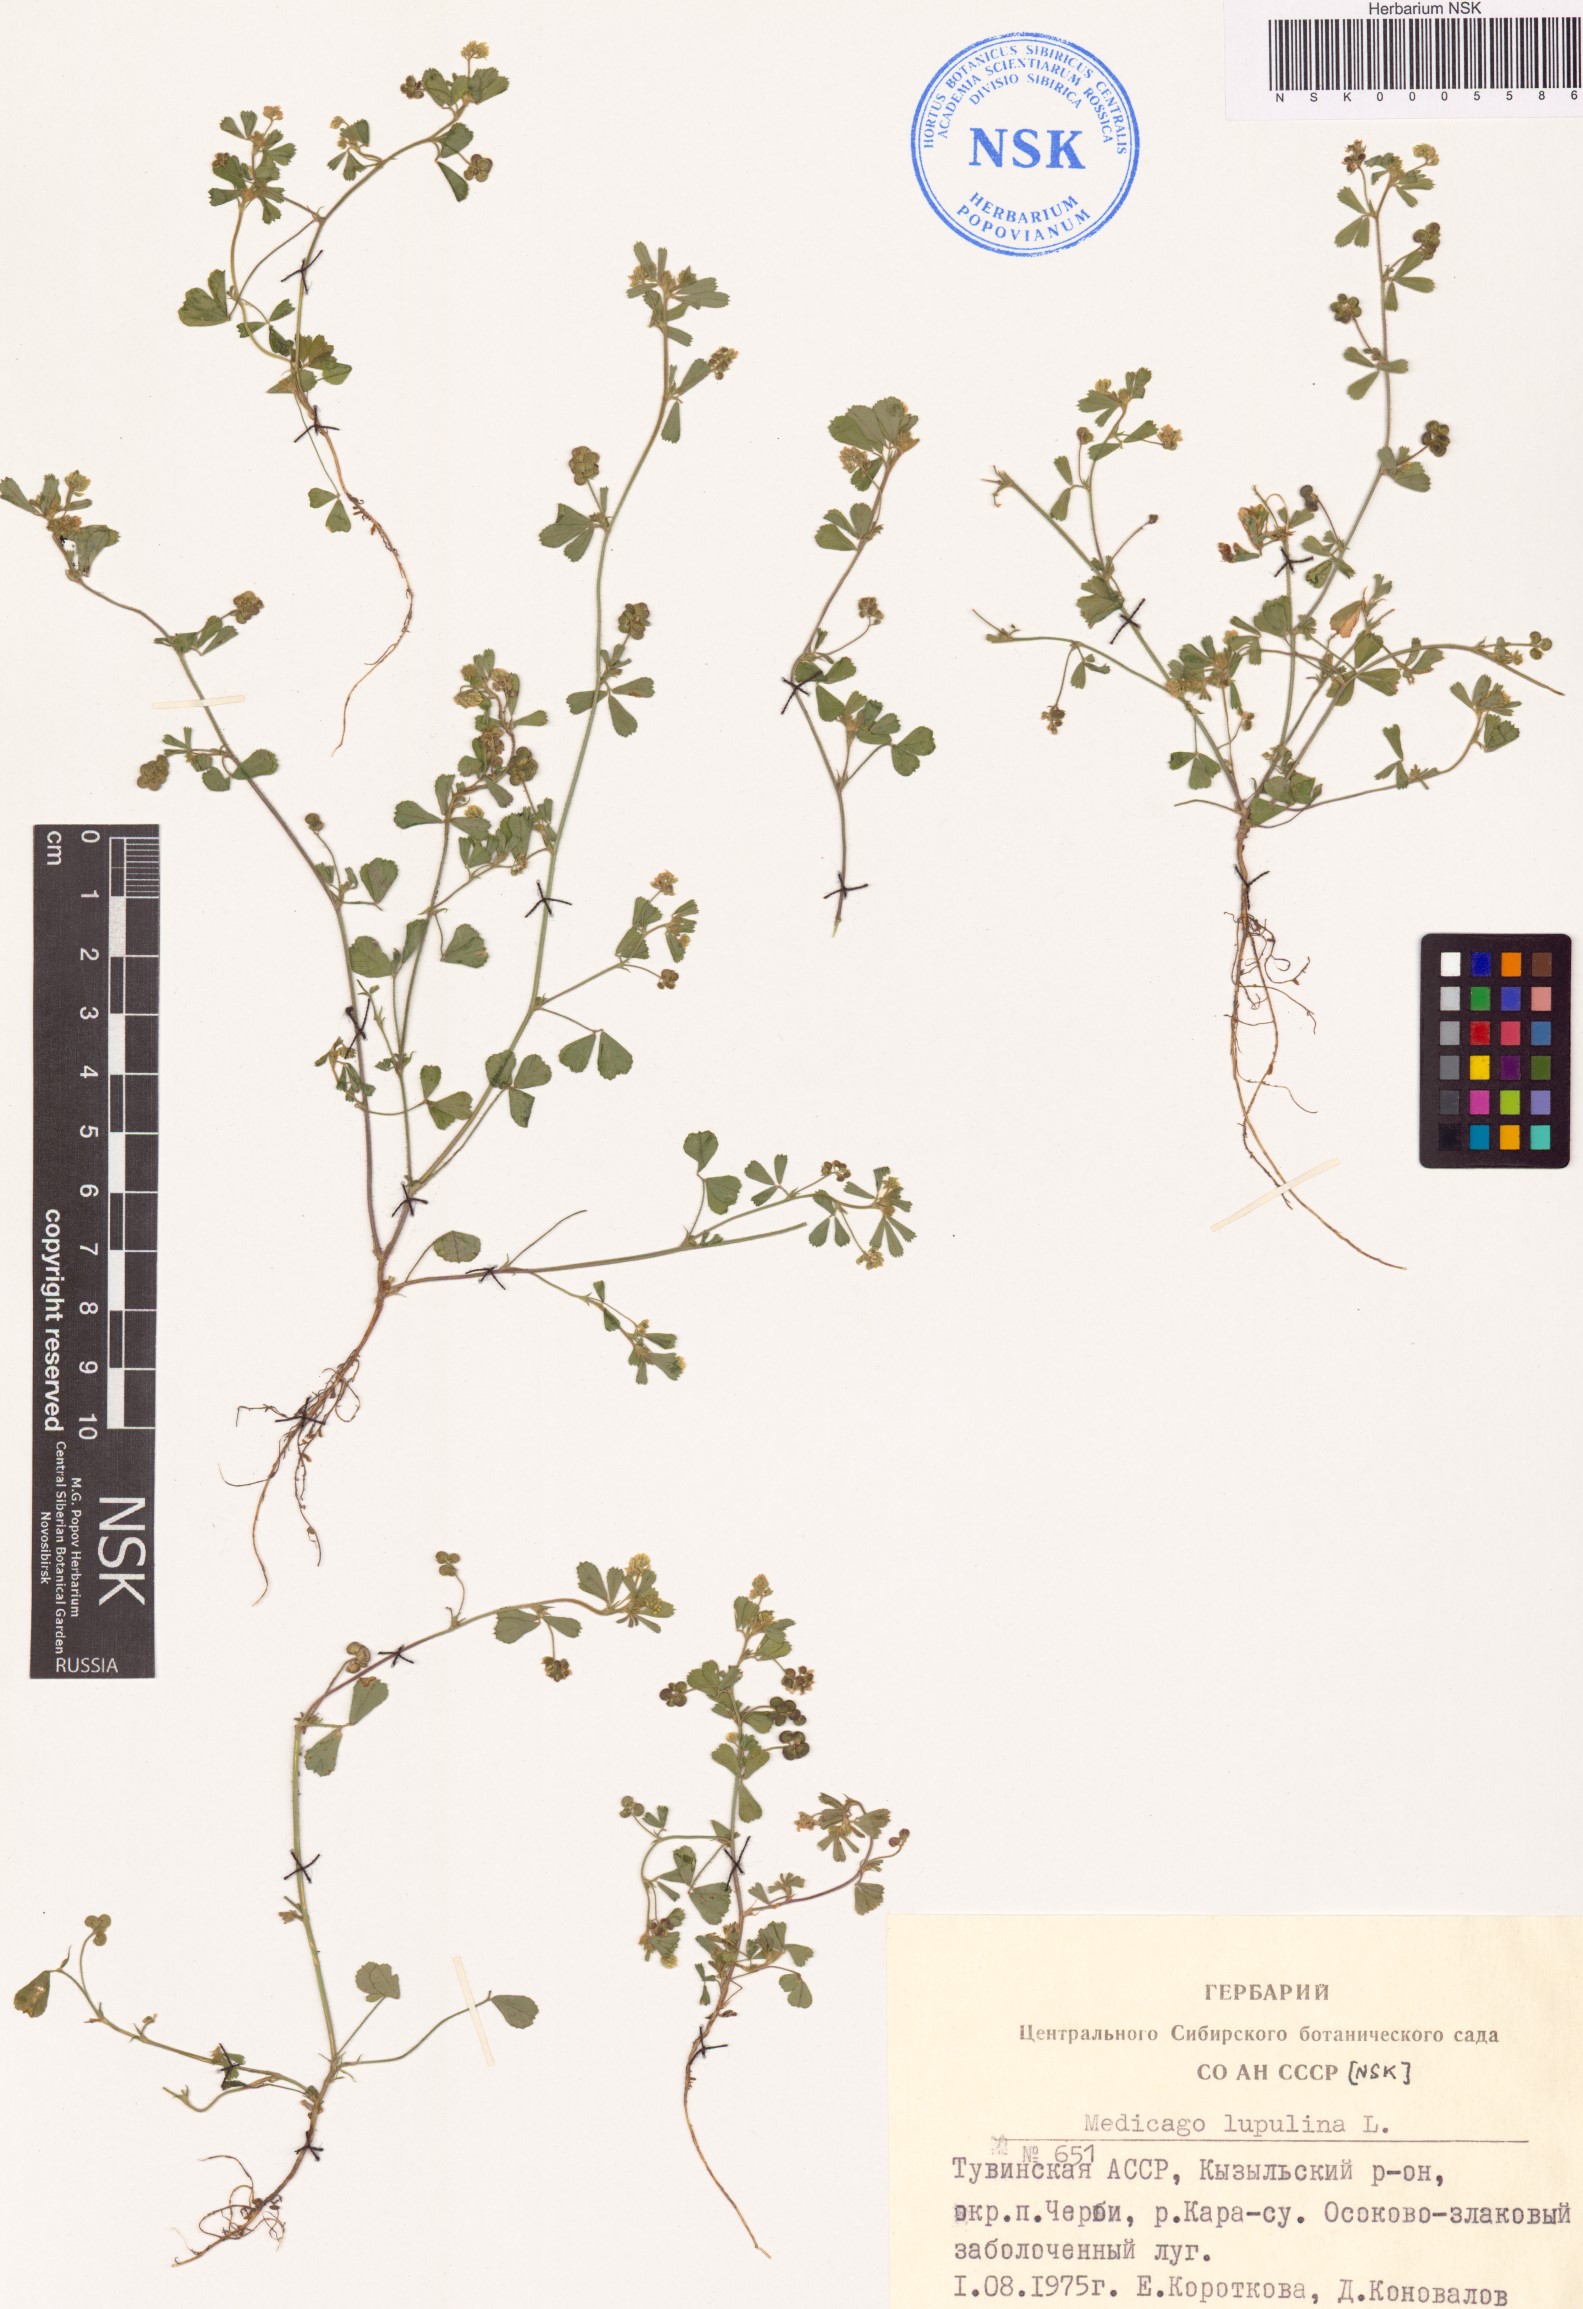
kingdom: Plantae
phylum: Tracheophyta
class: Magnoliopsida
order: Fabales
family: Fabaceae
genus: Medicago
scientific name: Medicago lupulina
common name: Black medick
